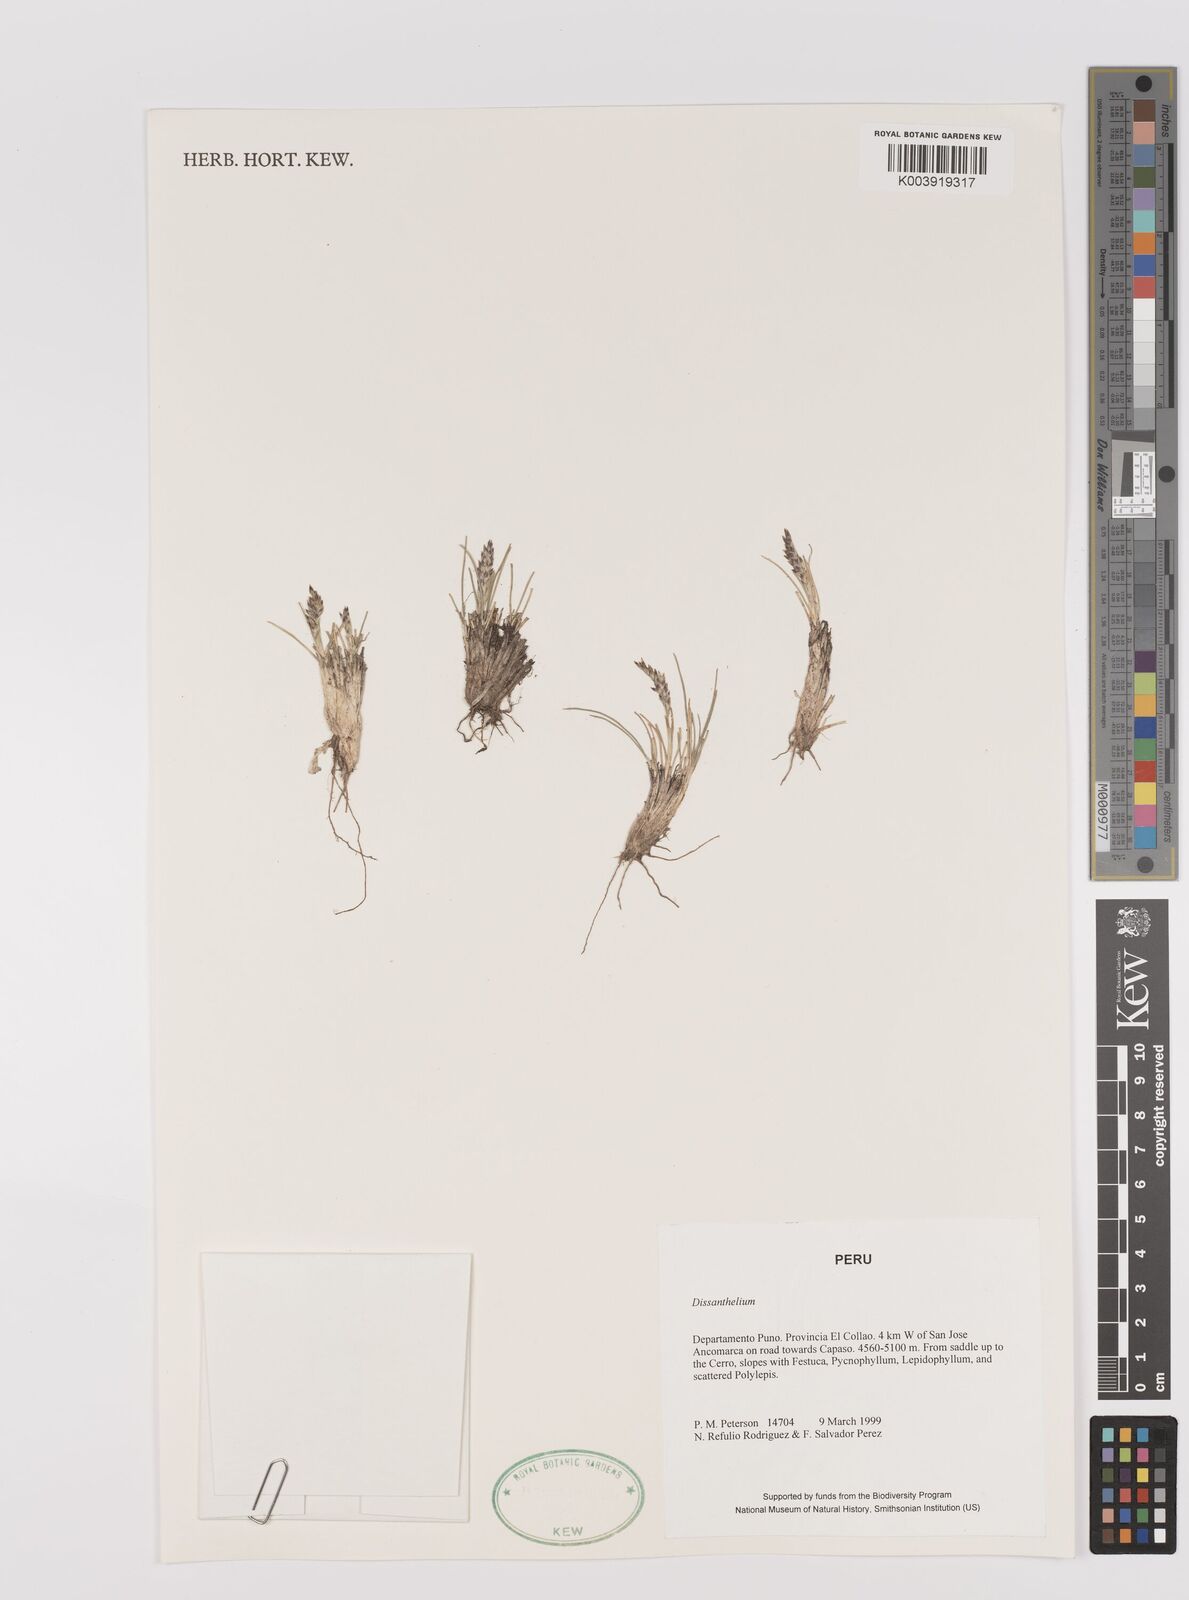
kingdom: Plantae
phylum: Tracheophyta
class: Liliopsida
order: Poales
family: Poaceae
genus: Poa
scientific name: Poa
